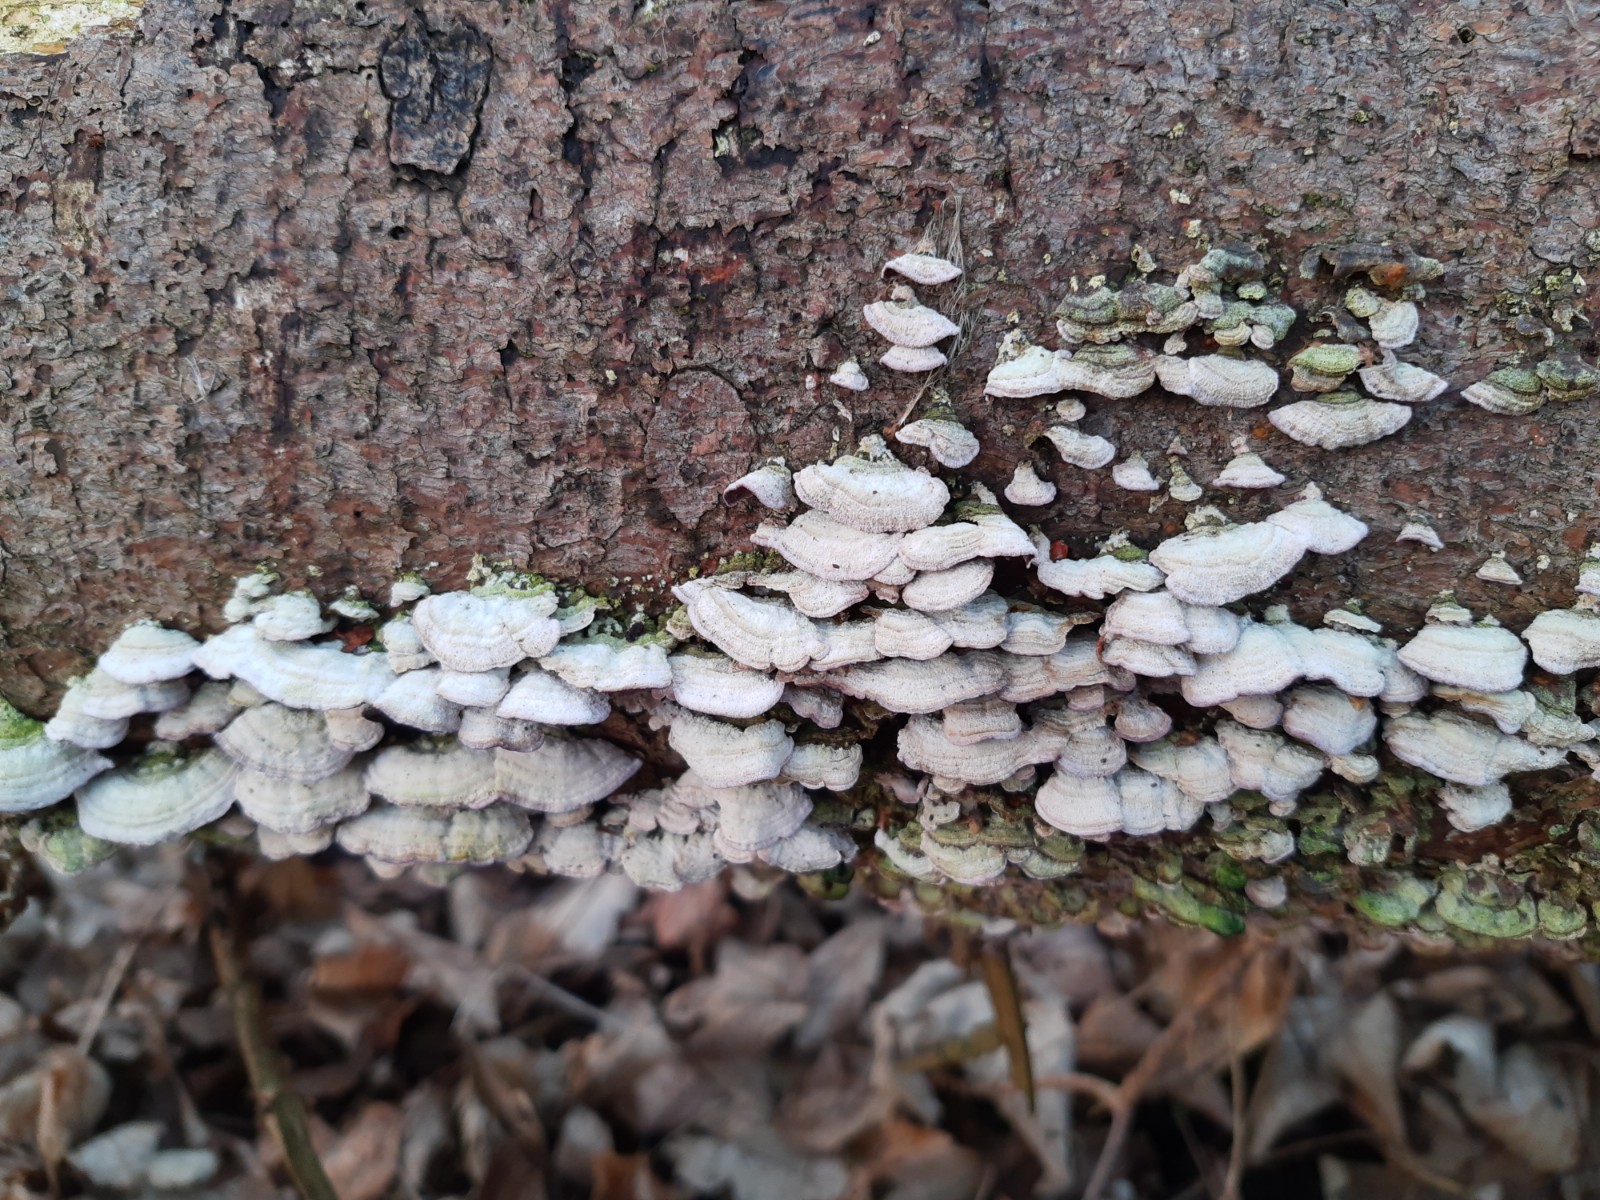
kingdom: Fungi
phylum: Basidiomycota
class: Agaricomycetes
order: Hymenochaetales
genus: Trichaptum
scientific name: Trichaptum abietinum
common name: almindelig violporesvamp
